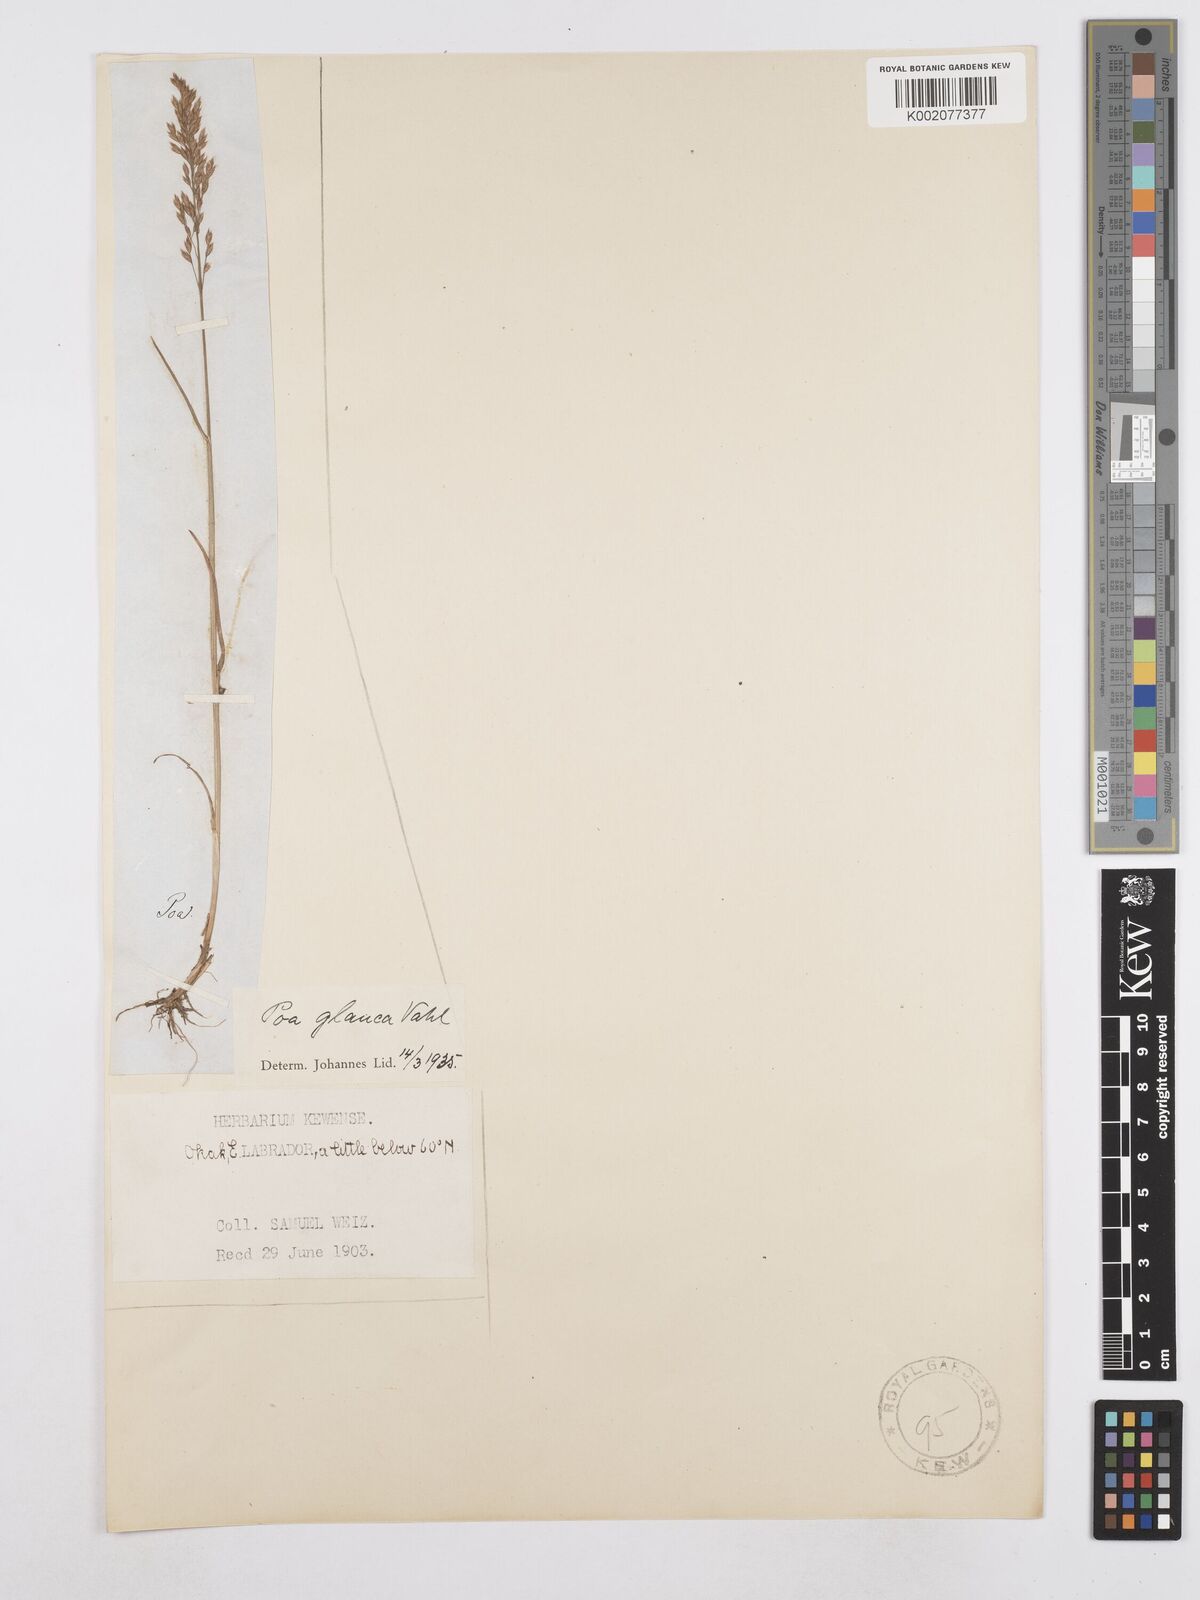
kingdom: Plantae
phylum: Tracheophyta
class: Liliopsida
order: Poales
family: Poaceae
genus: Poa
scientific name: Poa glauca
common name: Glaucous bluegrass
